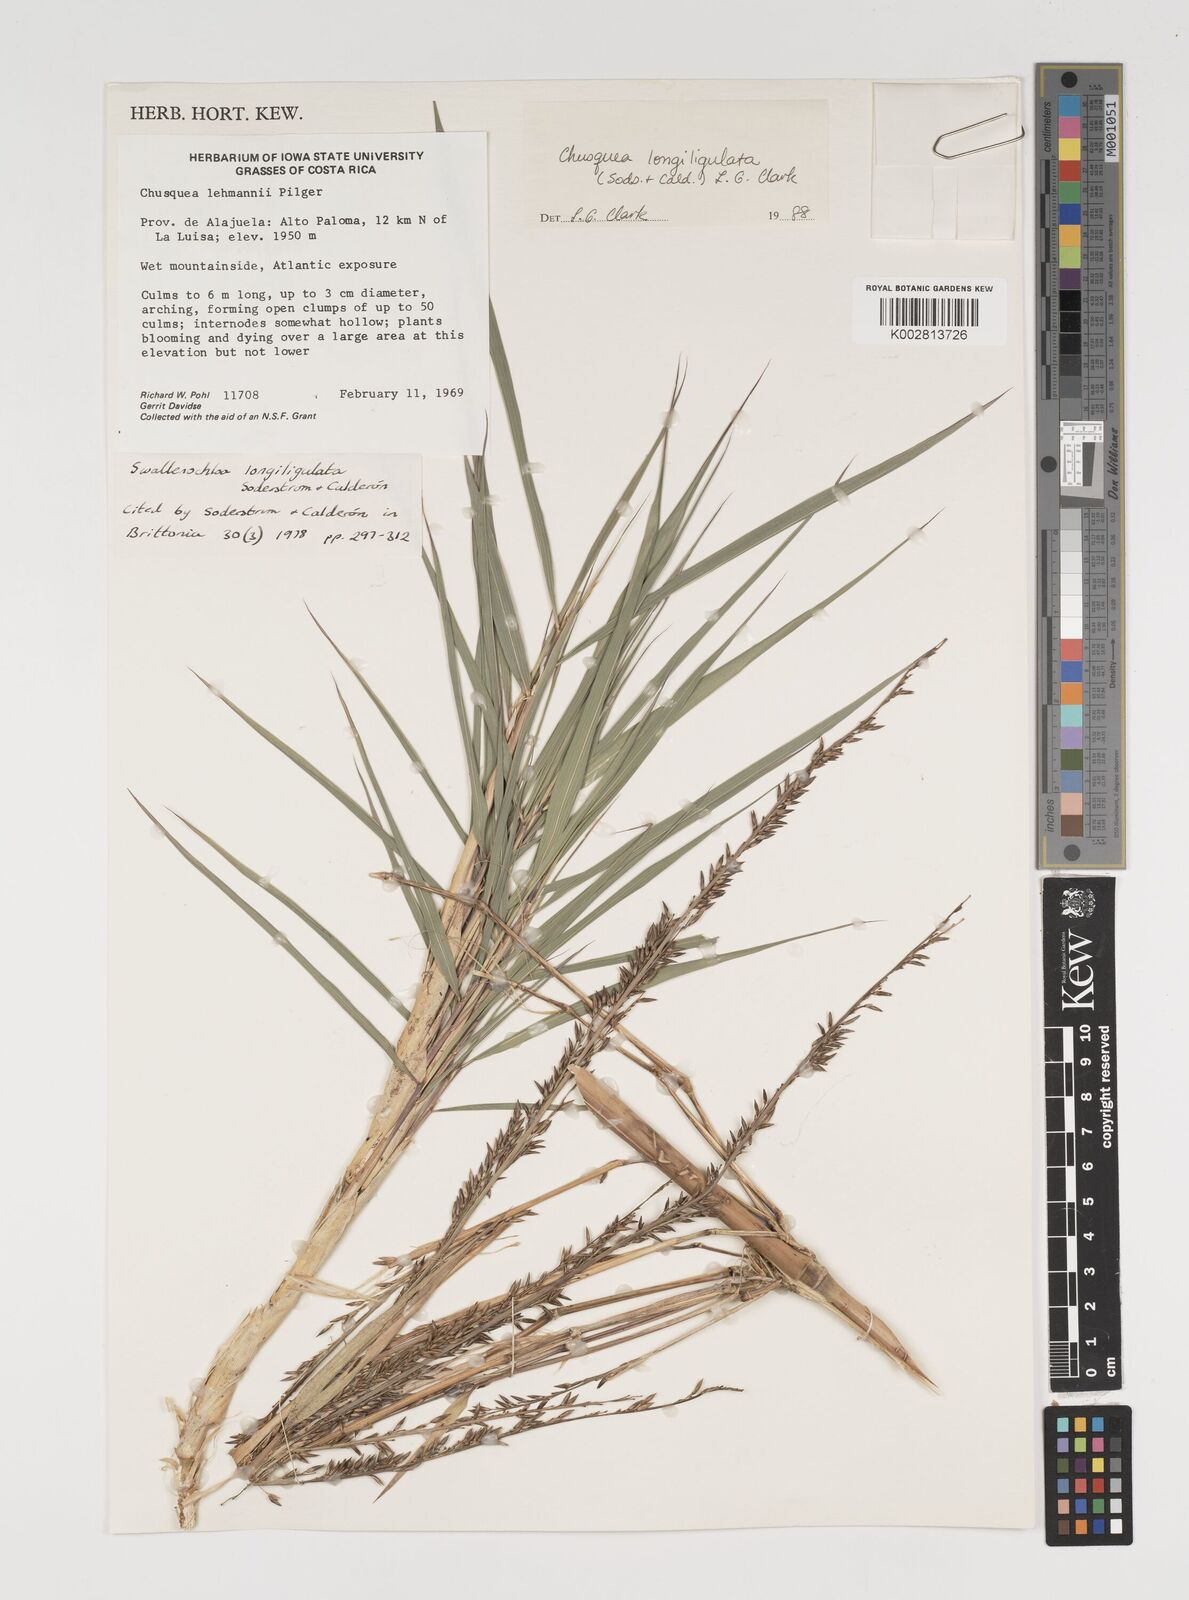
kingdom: Plantae
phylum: Tracheophyta
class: Liliopsida
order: Poales
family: Poaceae
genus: Chusquea
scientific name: Chusquea longiligulata
